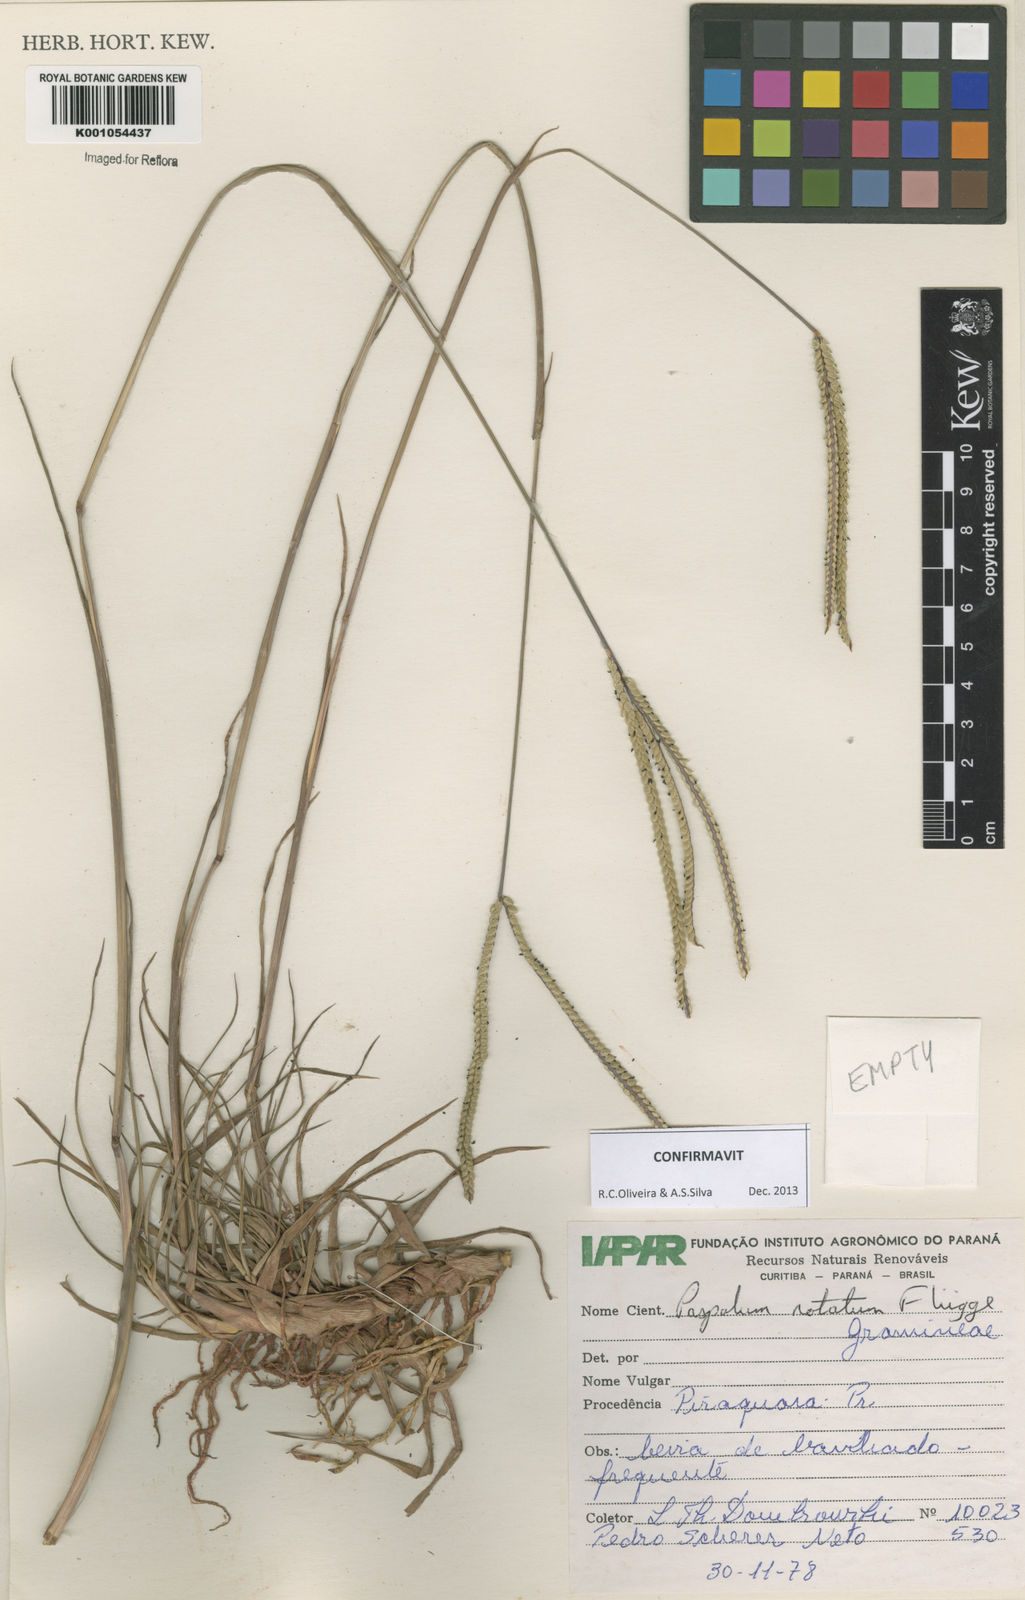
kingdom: Plantae
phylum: Tracheophyta
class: Liliopsida
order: Poales
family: Poaceae
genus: Paspalum
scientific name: Paspalum
